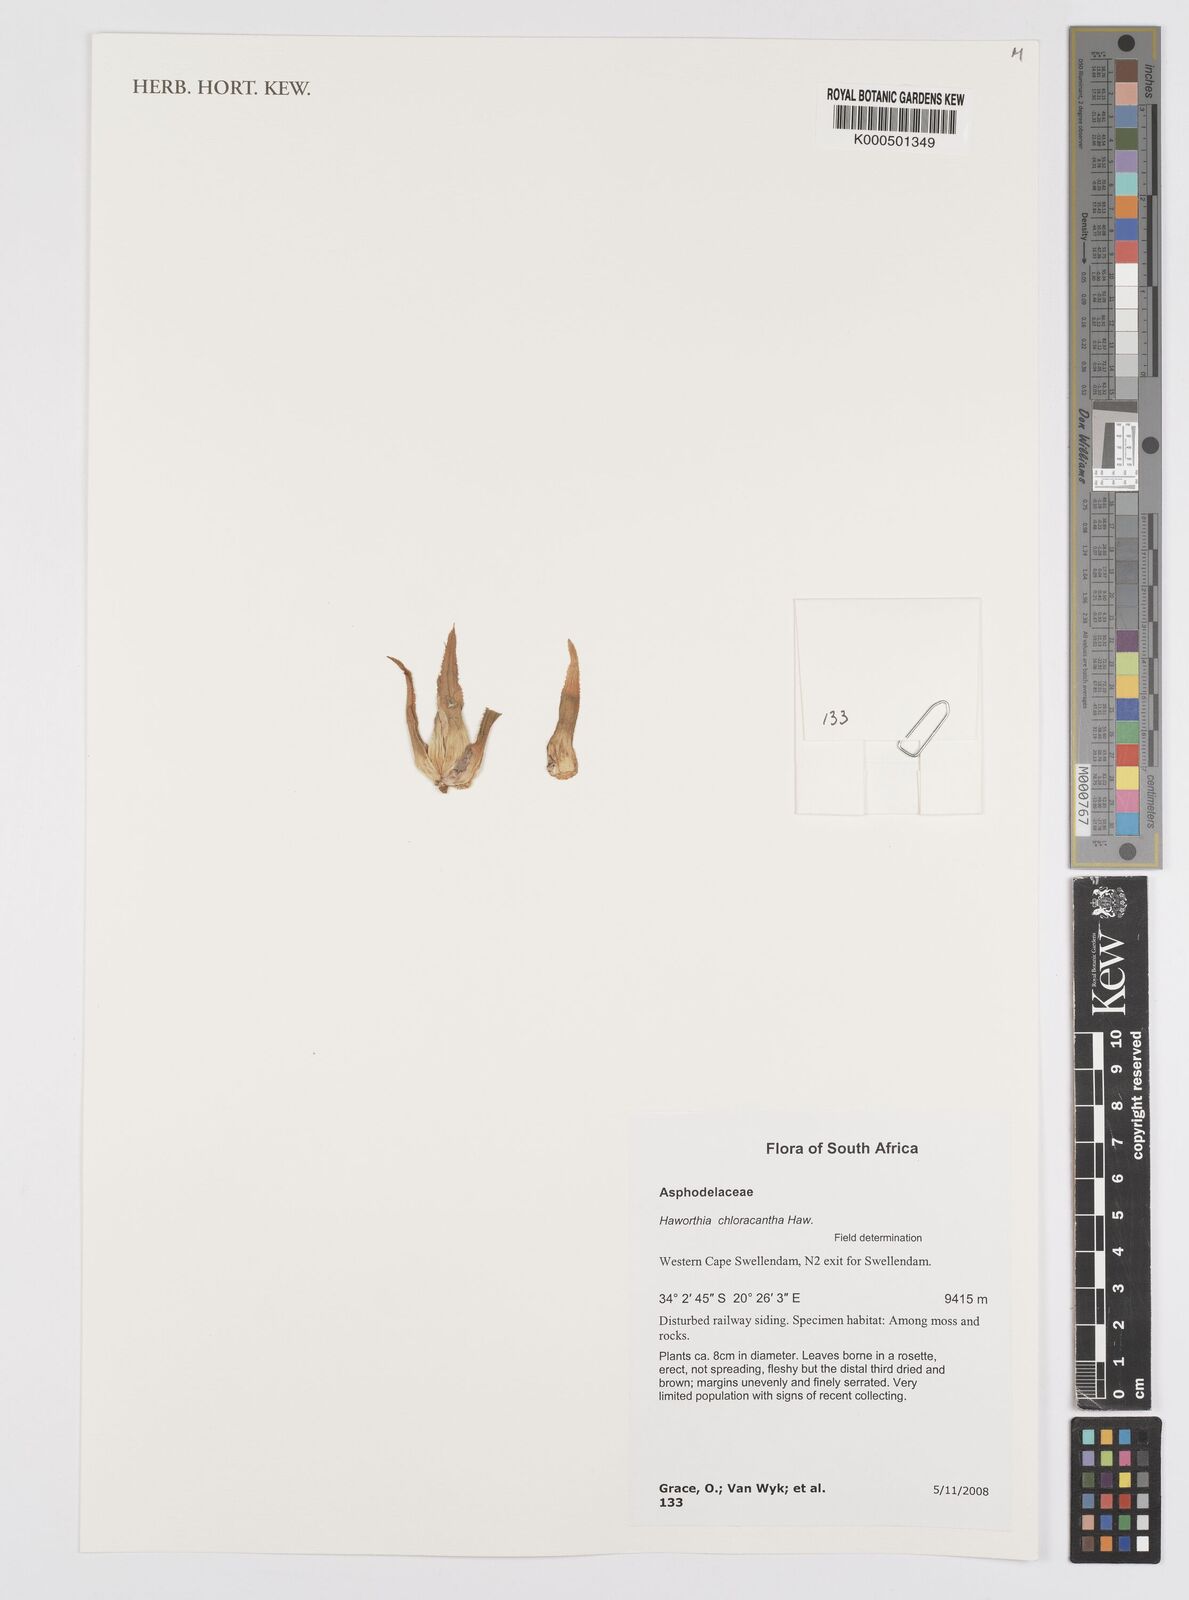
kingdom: Plantae
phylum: Tracheophyta
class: Liliopsida
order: Asparagales
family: Asphodelaceae
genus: Haworthia
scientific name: Haworthia chloracantha
